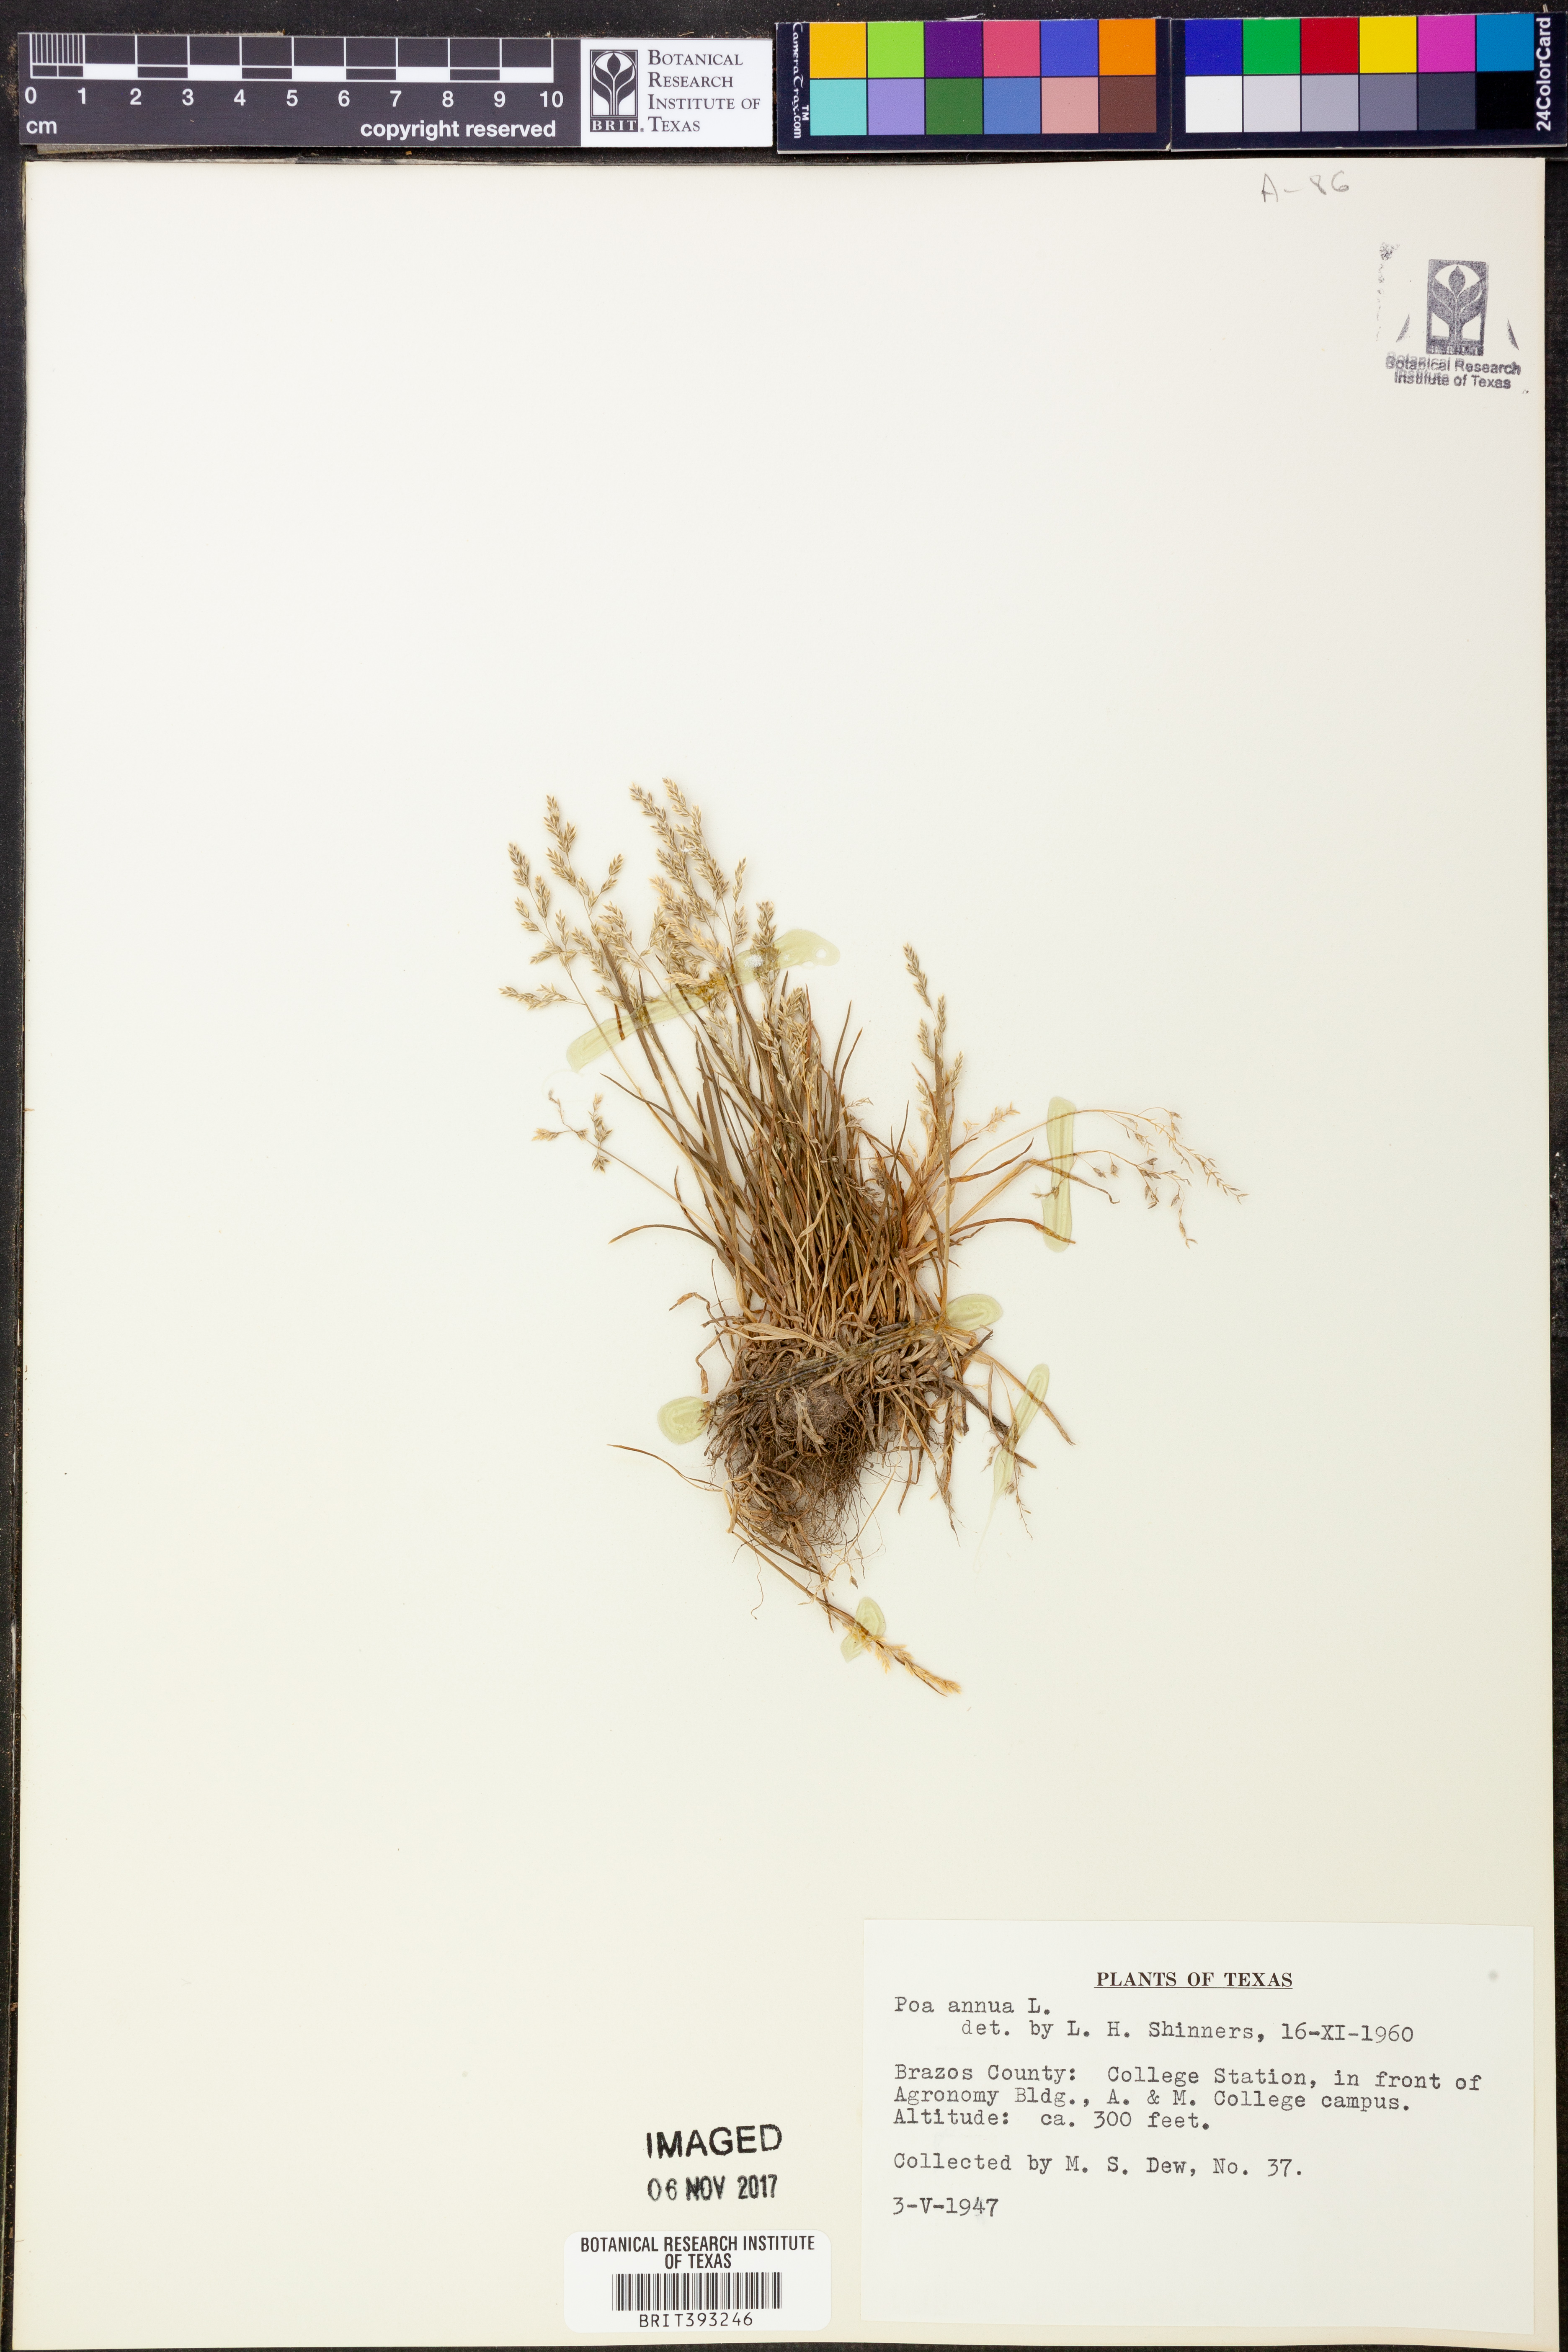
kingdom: Plantae
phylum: Tracheophyta
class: Liliopsida
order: Poales
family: Poaceae
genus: Poa
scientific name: Poa annua
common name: Annual bluegrass
